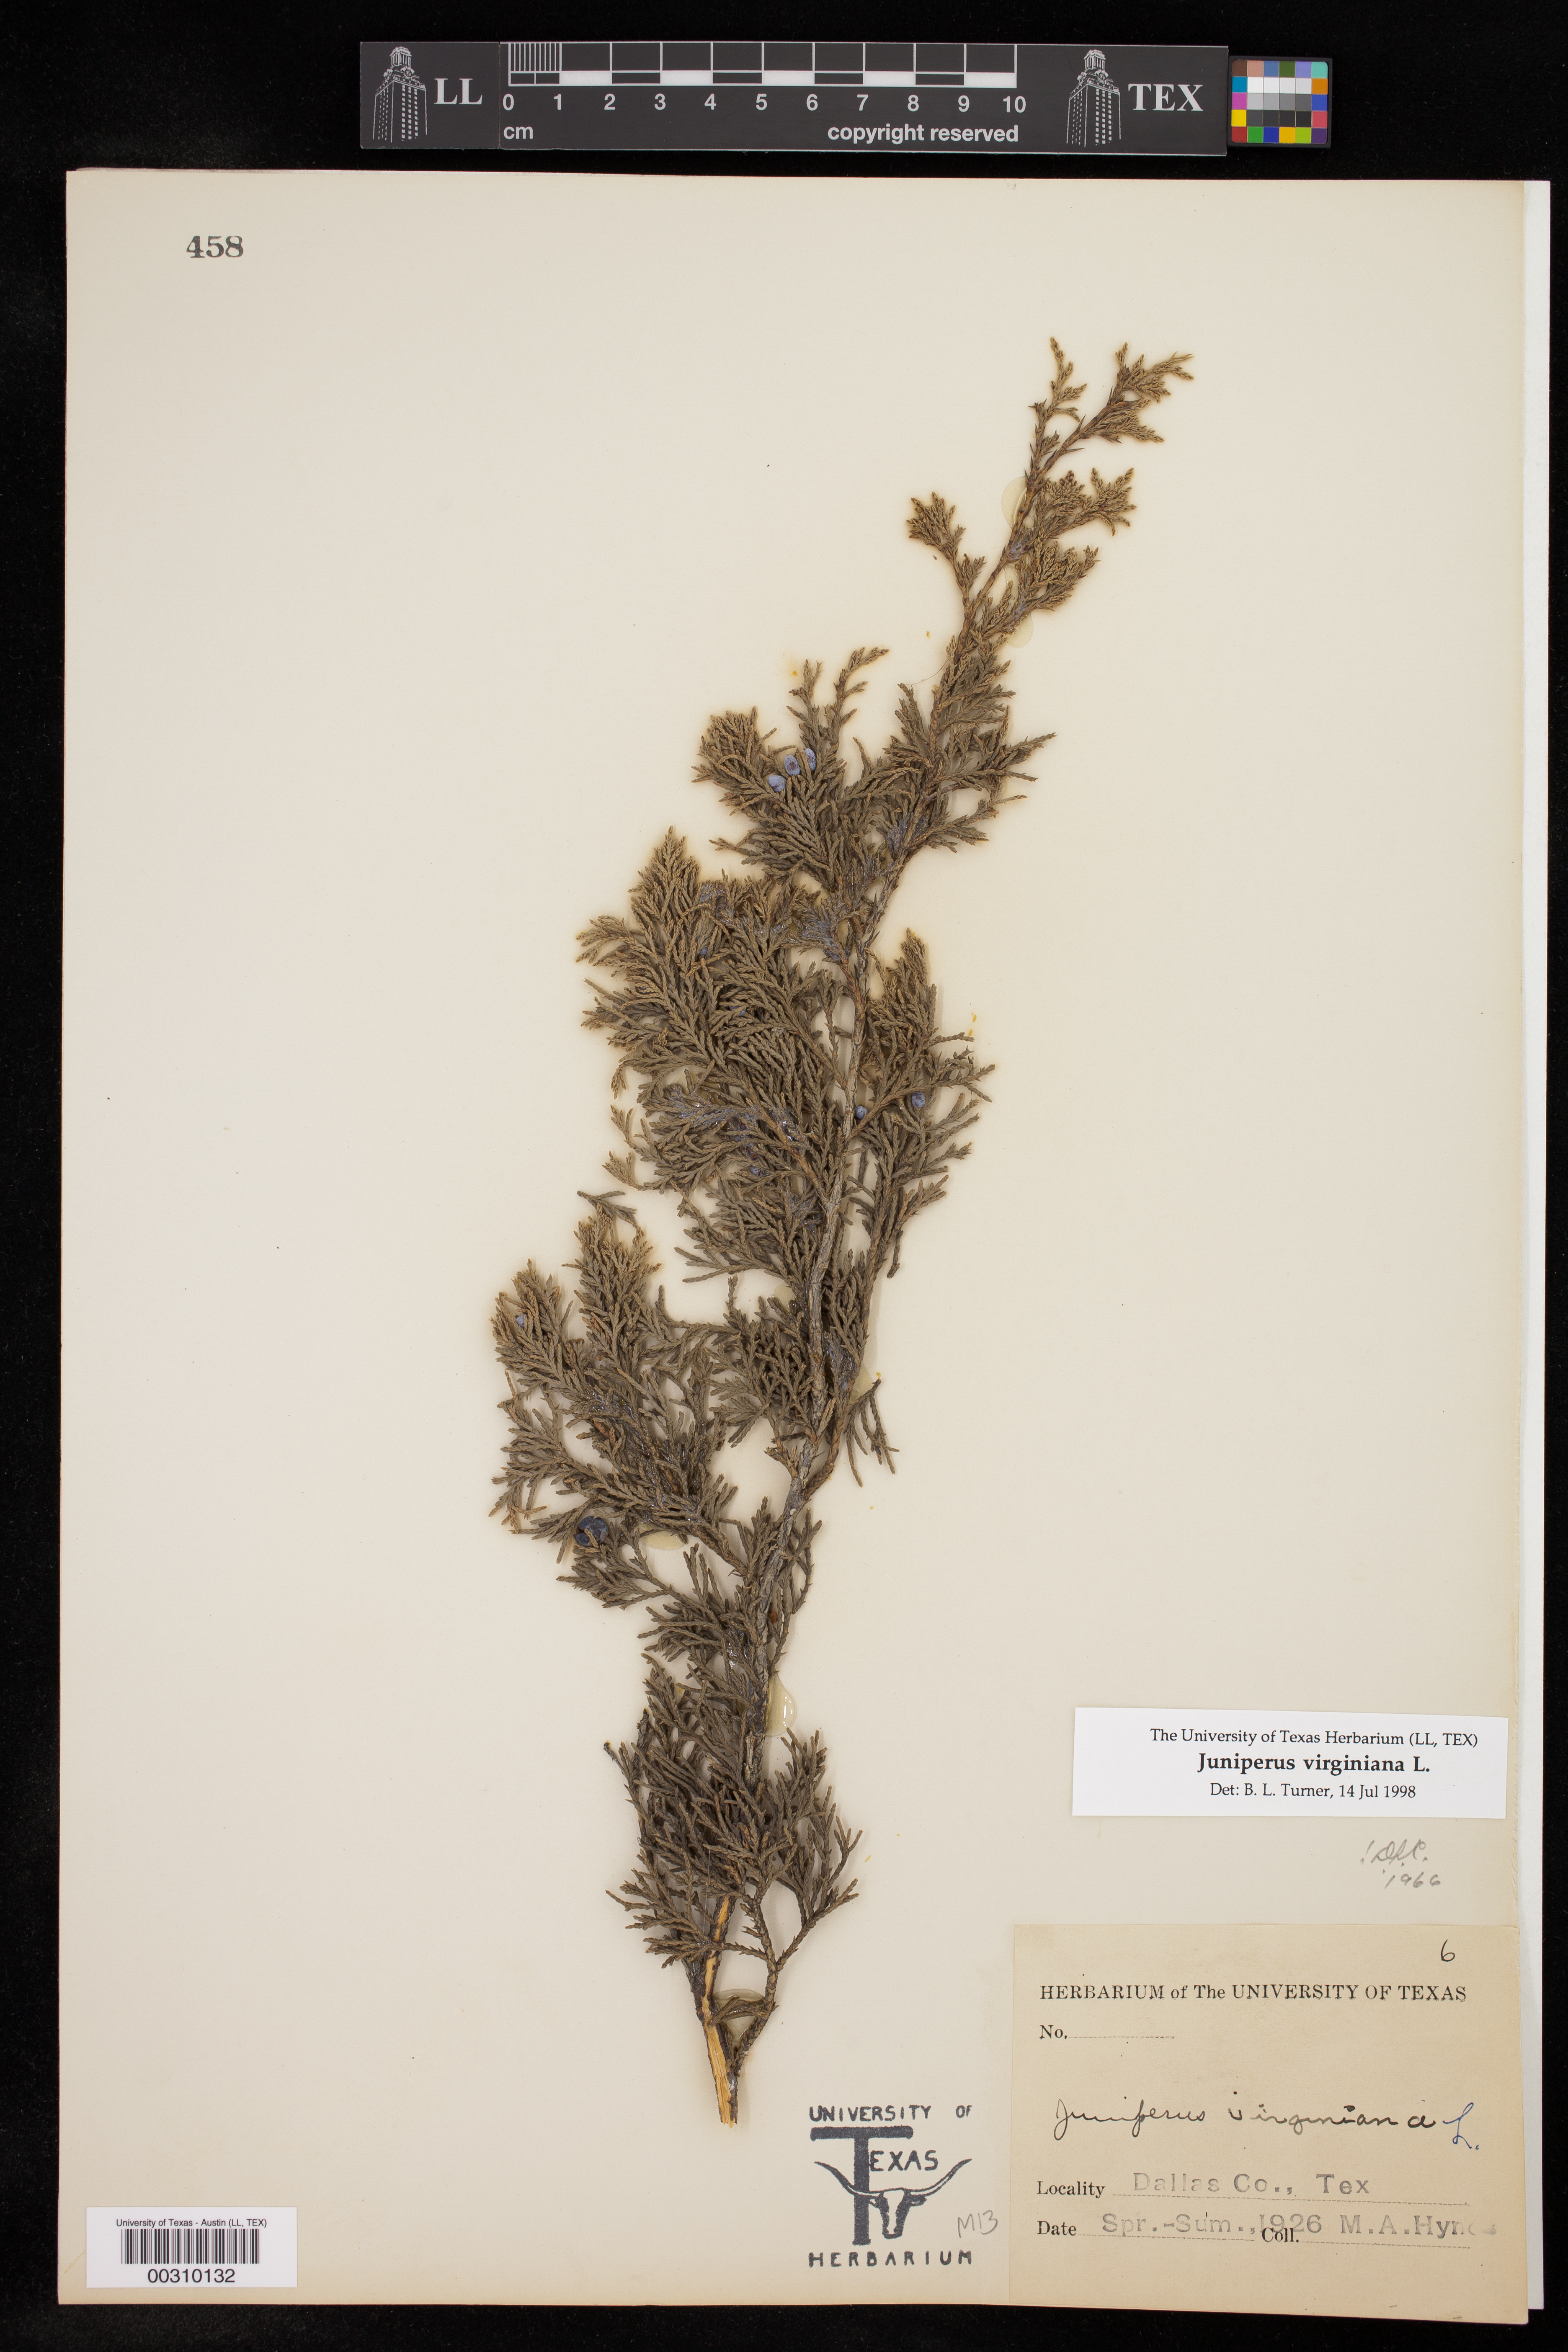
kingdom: Plantae
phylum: Tracheophyta
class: Pinopsida
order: Pinales
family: Cupressaceae
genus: Juniperus
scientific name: Juniperus virginiana
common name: Red juniper
